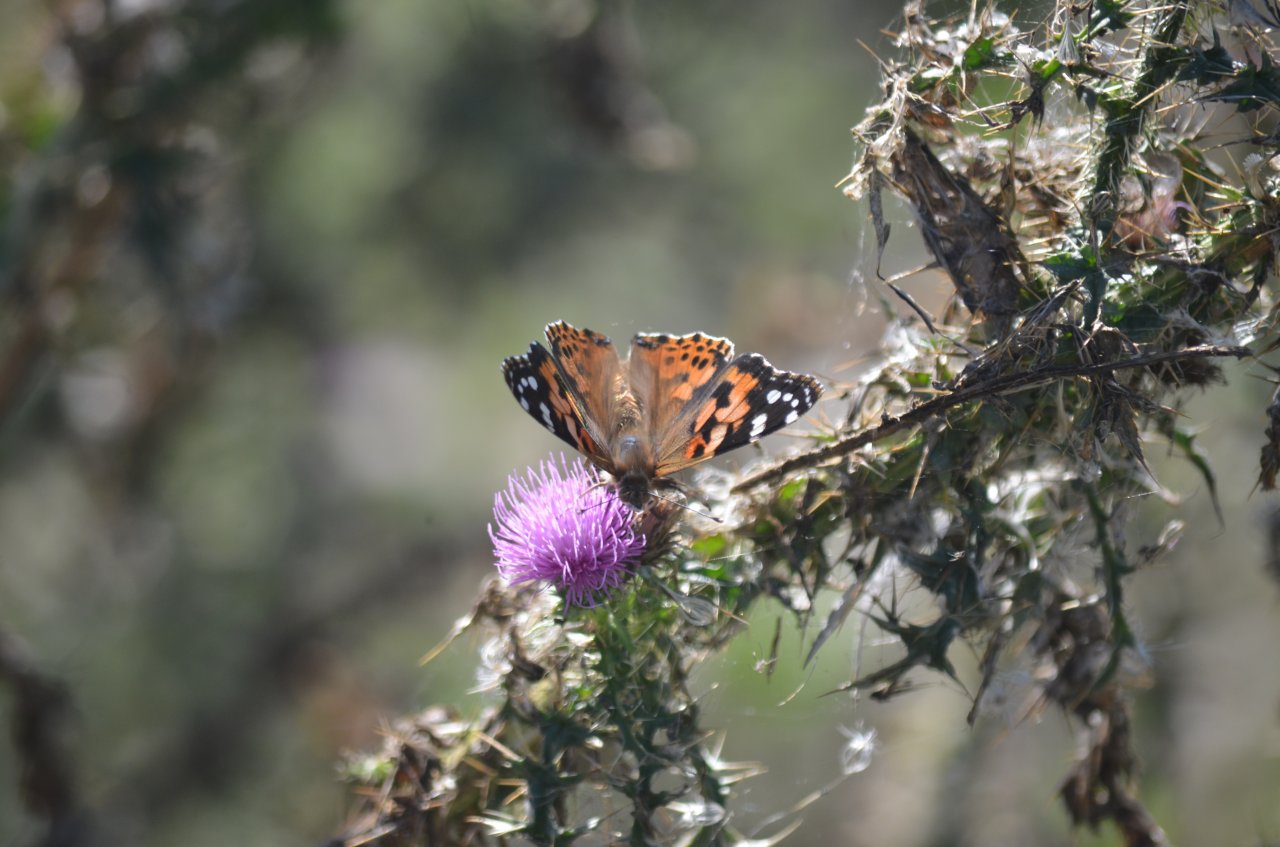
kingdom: Animalia
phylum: Arthropoda
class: Insecta
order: Lepidoptera
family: Nymphalidae
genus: Vanessa
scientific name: Vanessa cardui
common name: Painted Lady
